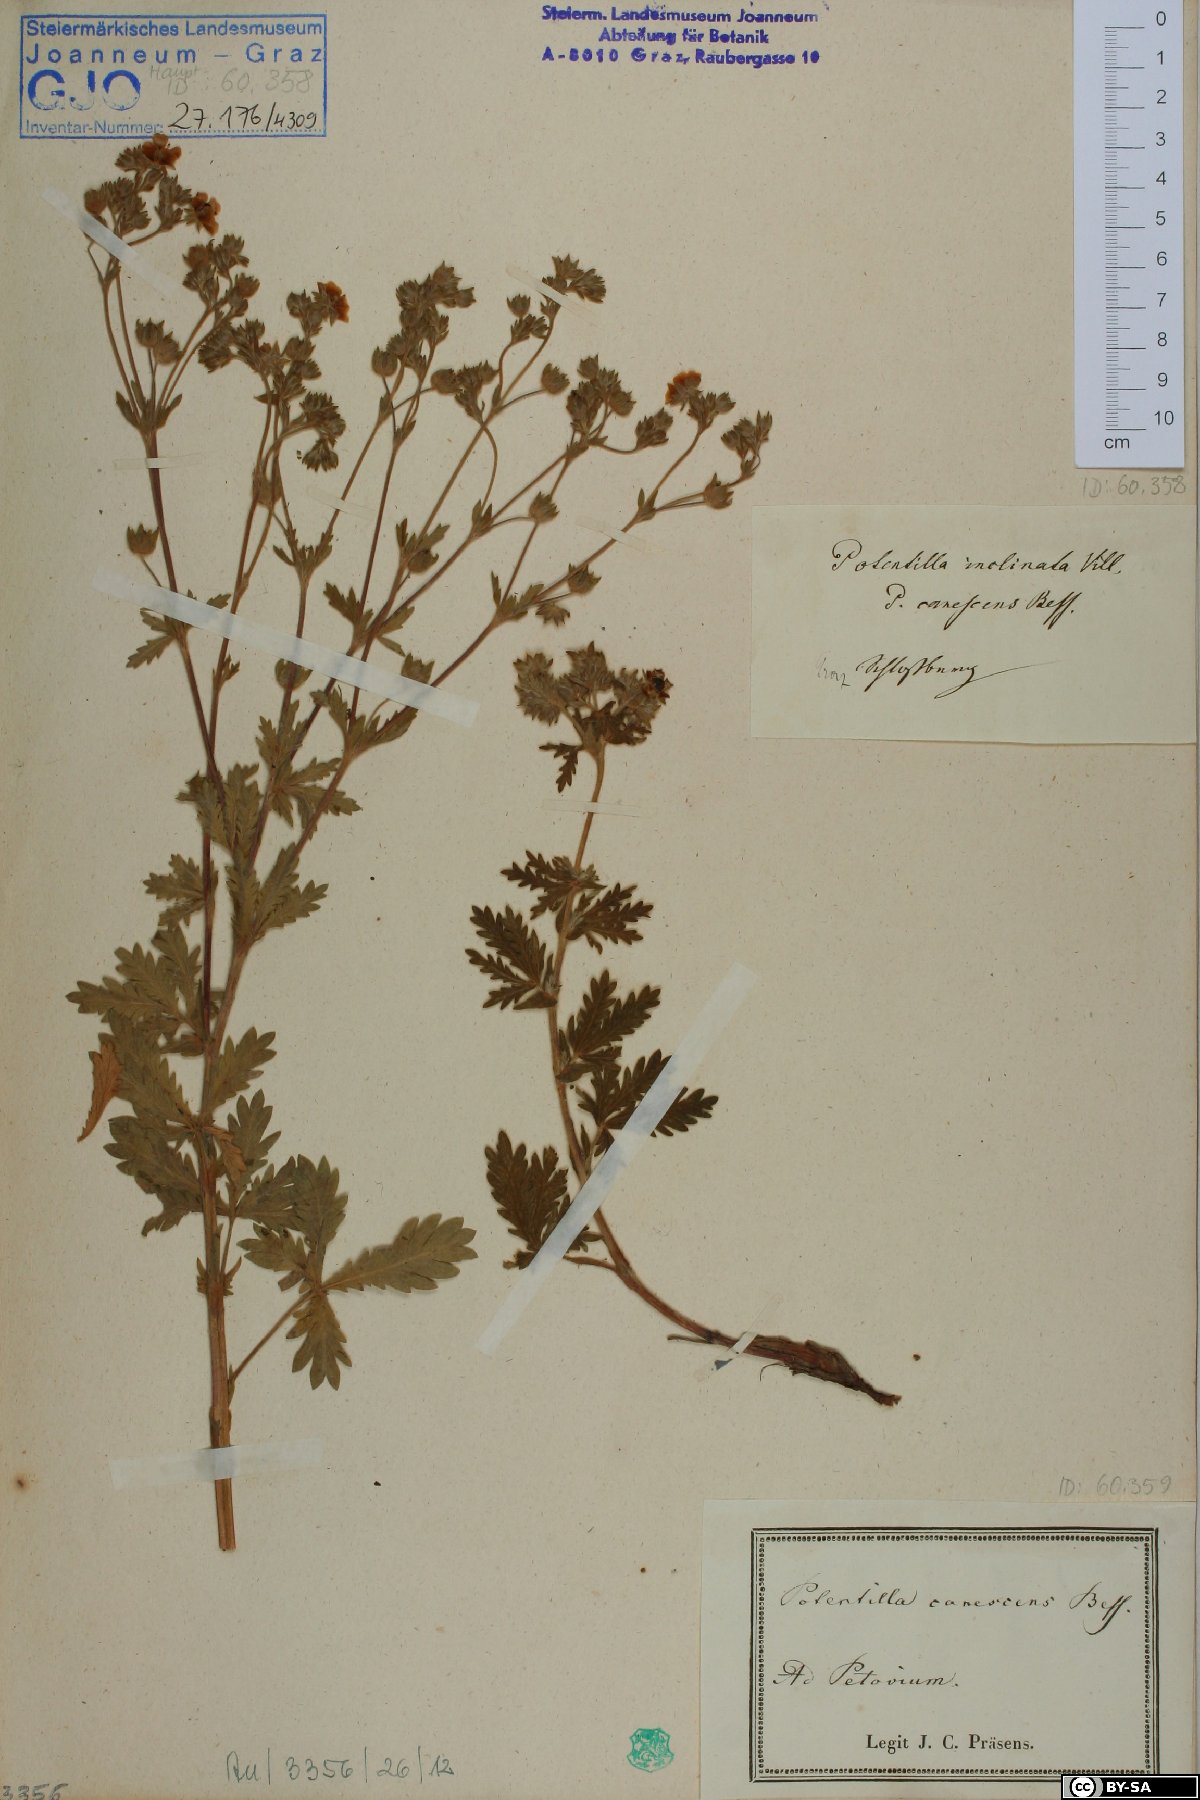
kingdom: Plantae
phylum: Tracheophyta
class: Magnoliopsida
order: Rosales
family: Rosaceae
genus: Potentilla
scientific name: Potentilla inclinata
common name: Grey cinquefoil
